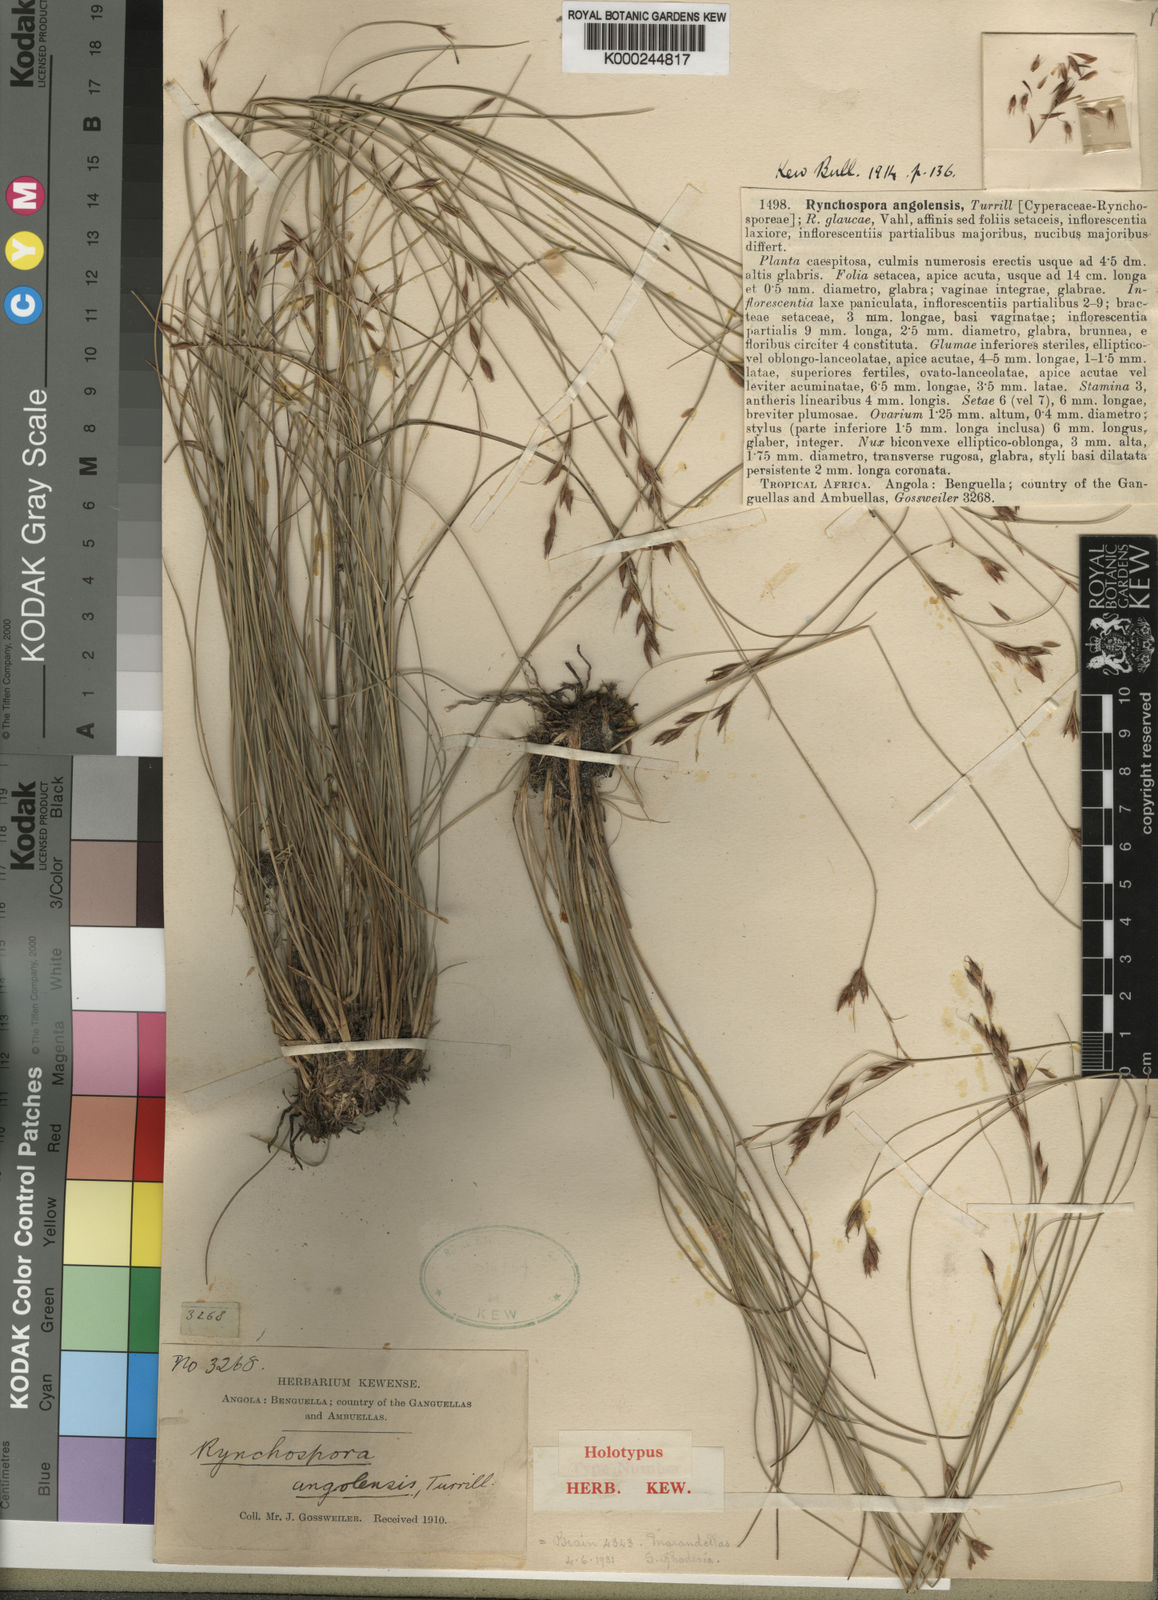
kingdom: Plantae
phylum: Tracheophyta
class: Liliopsida
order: Poales
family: Cyperaceae
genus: Rhynchospora
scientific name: Rhynchospora angolensis
